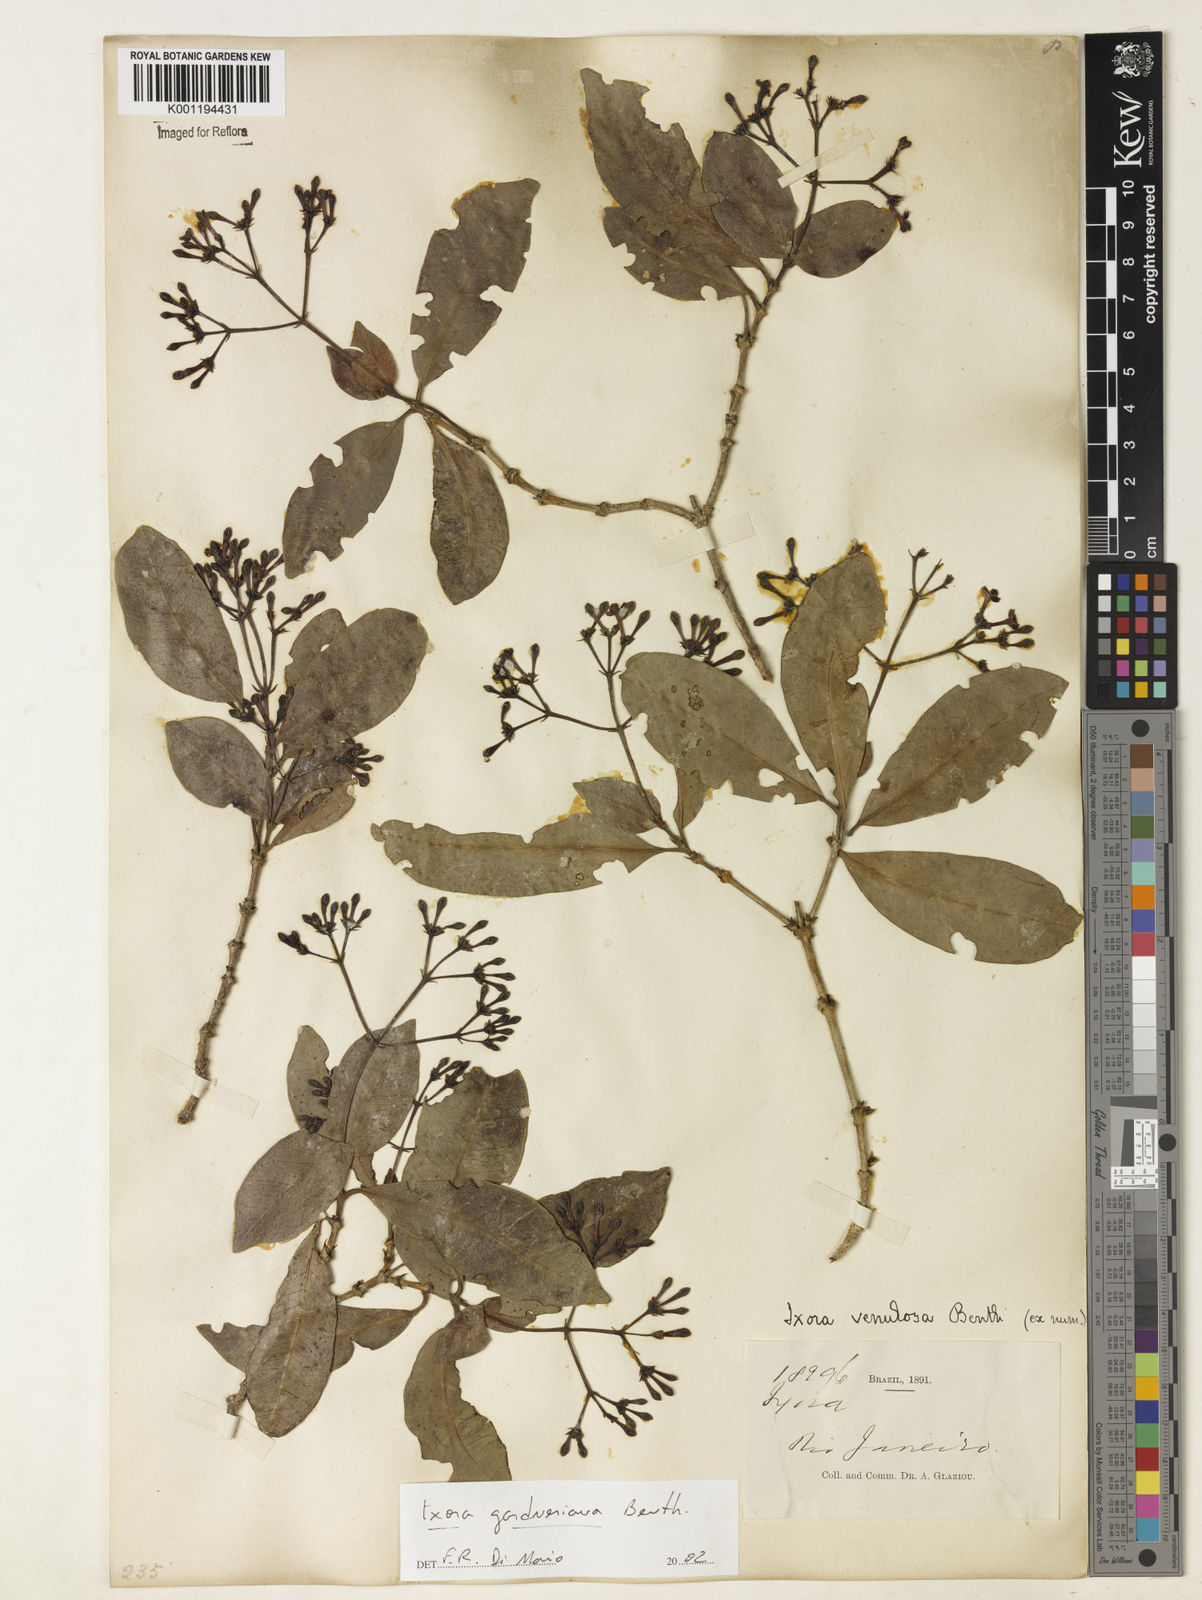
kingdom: Plantae
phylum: Tracheophyta
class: Magnoliopsida
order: Gentianales
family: Rubiaceae
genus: Ixora
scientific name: Ixora gardneriana
